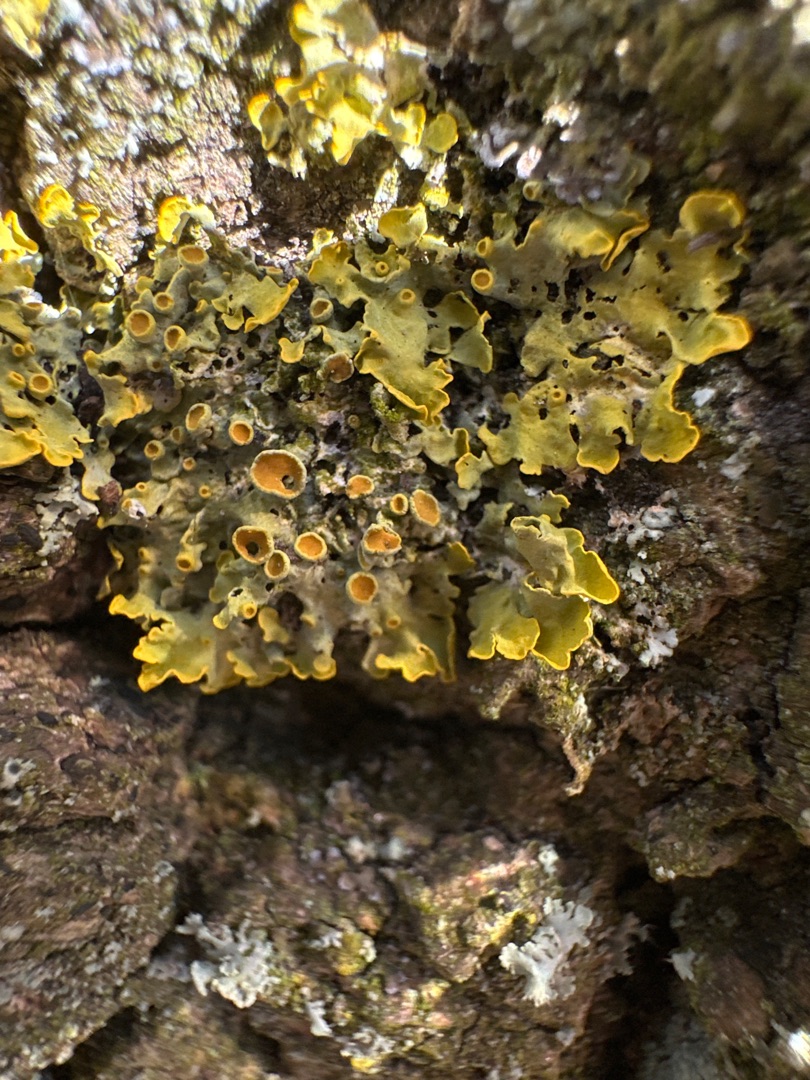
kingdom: Fungi
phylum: Ascomycota
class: Lecanoromycetes
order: Teloschistales
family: Teloschistaceae
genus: Xanthoria
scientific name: Xanthoria parietina
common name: Almindelig væggelav
